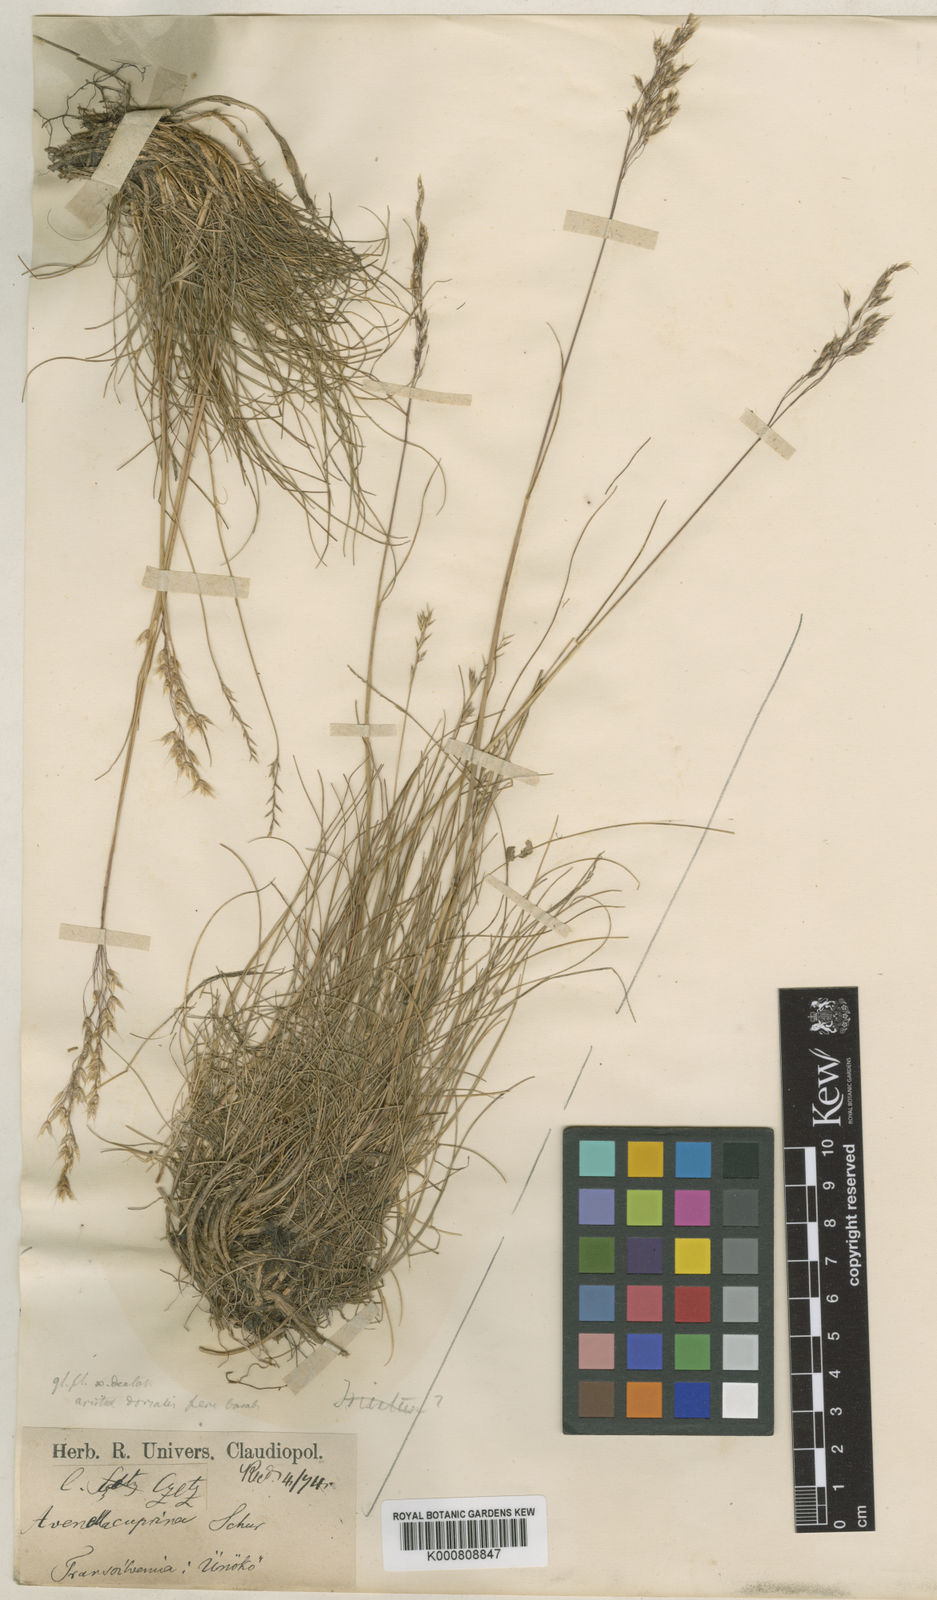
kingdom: Plantae
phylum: Tracheophyta
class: Liliopsida
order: Poales
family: Poaceae
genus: Avenella
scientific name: Avenella flexuosa
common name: Wavy hairgrass
